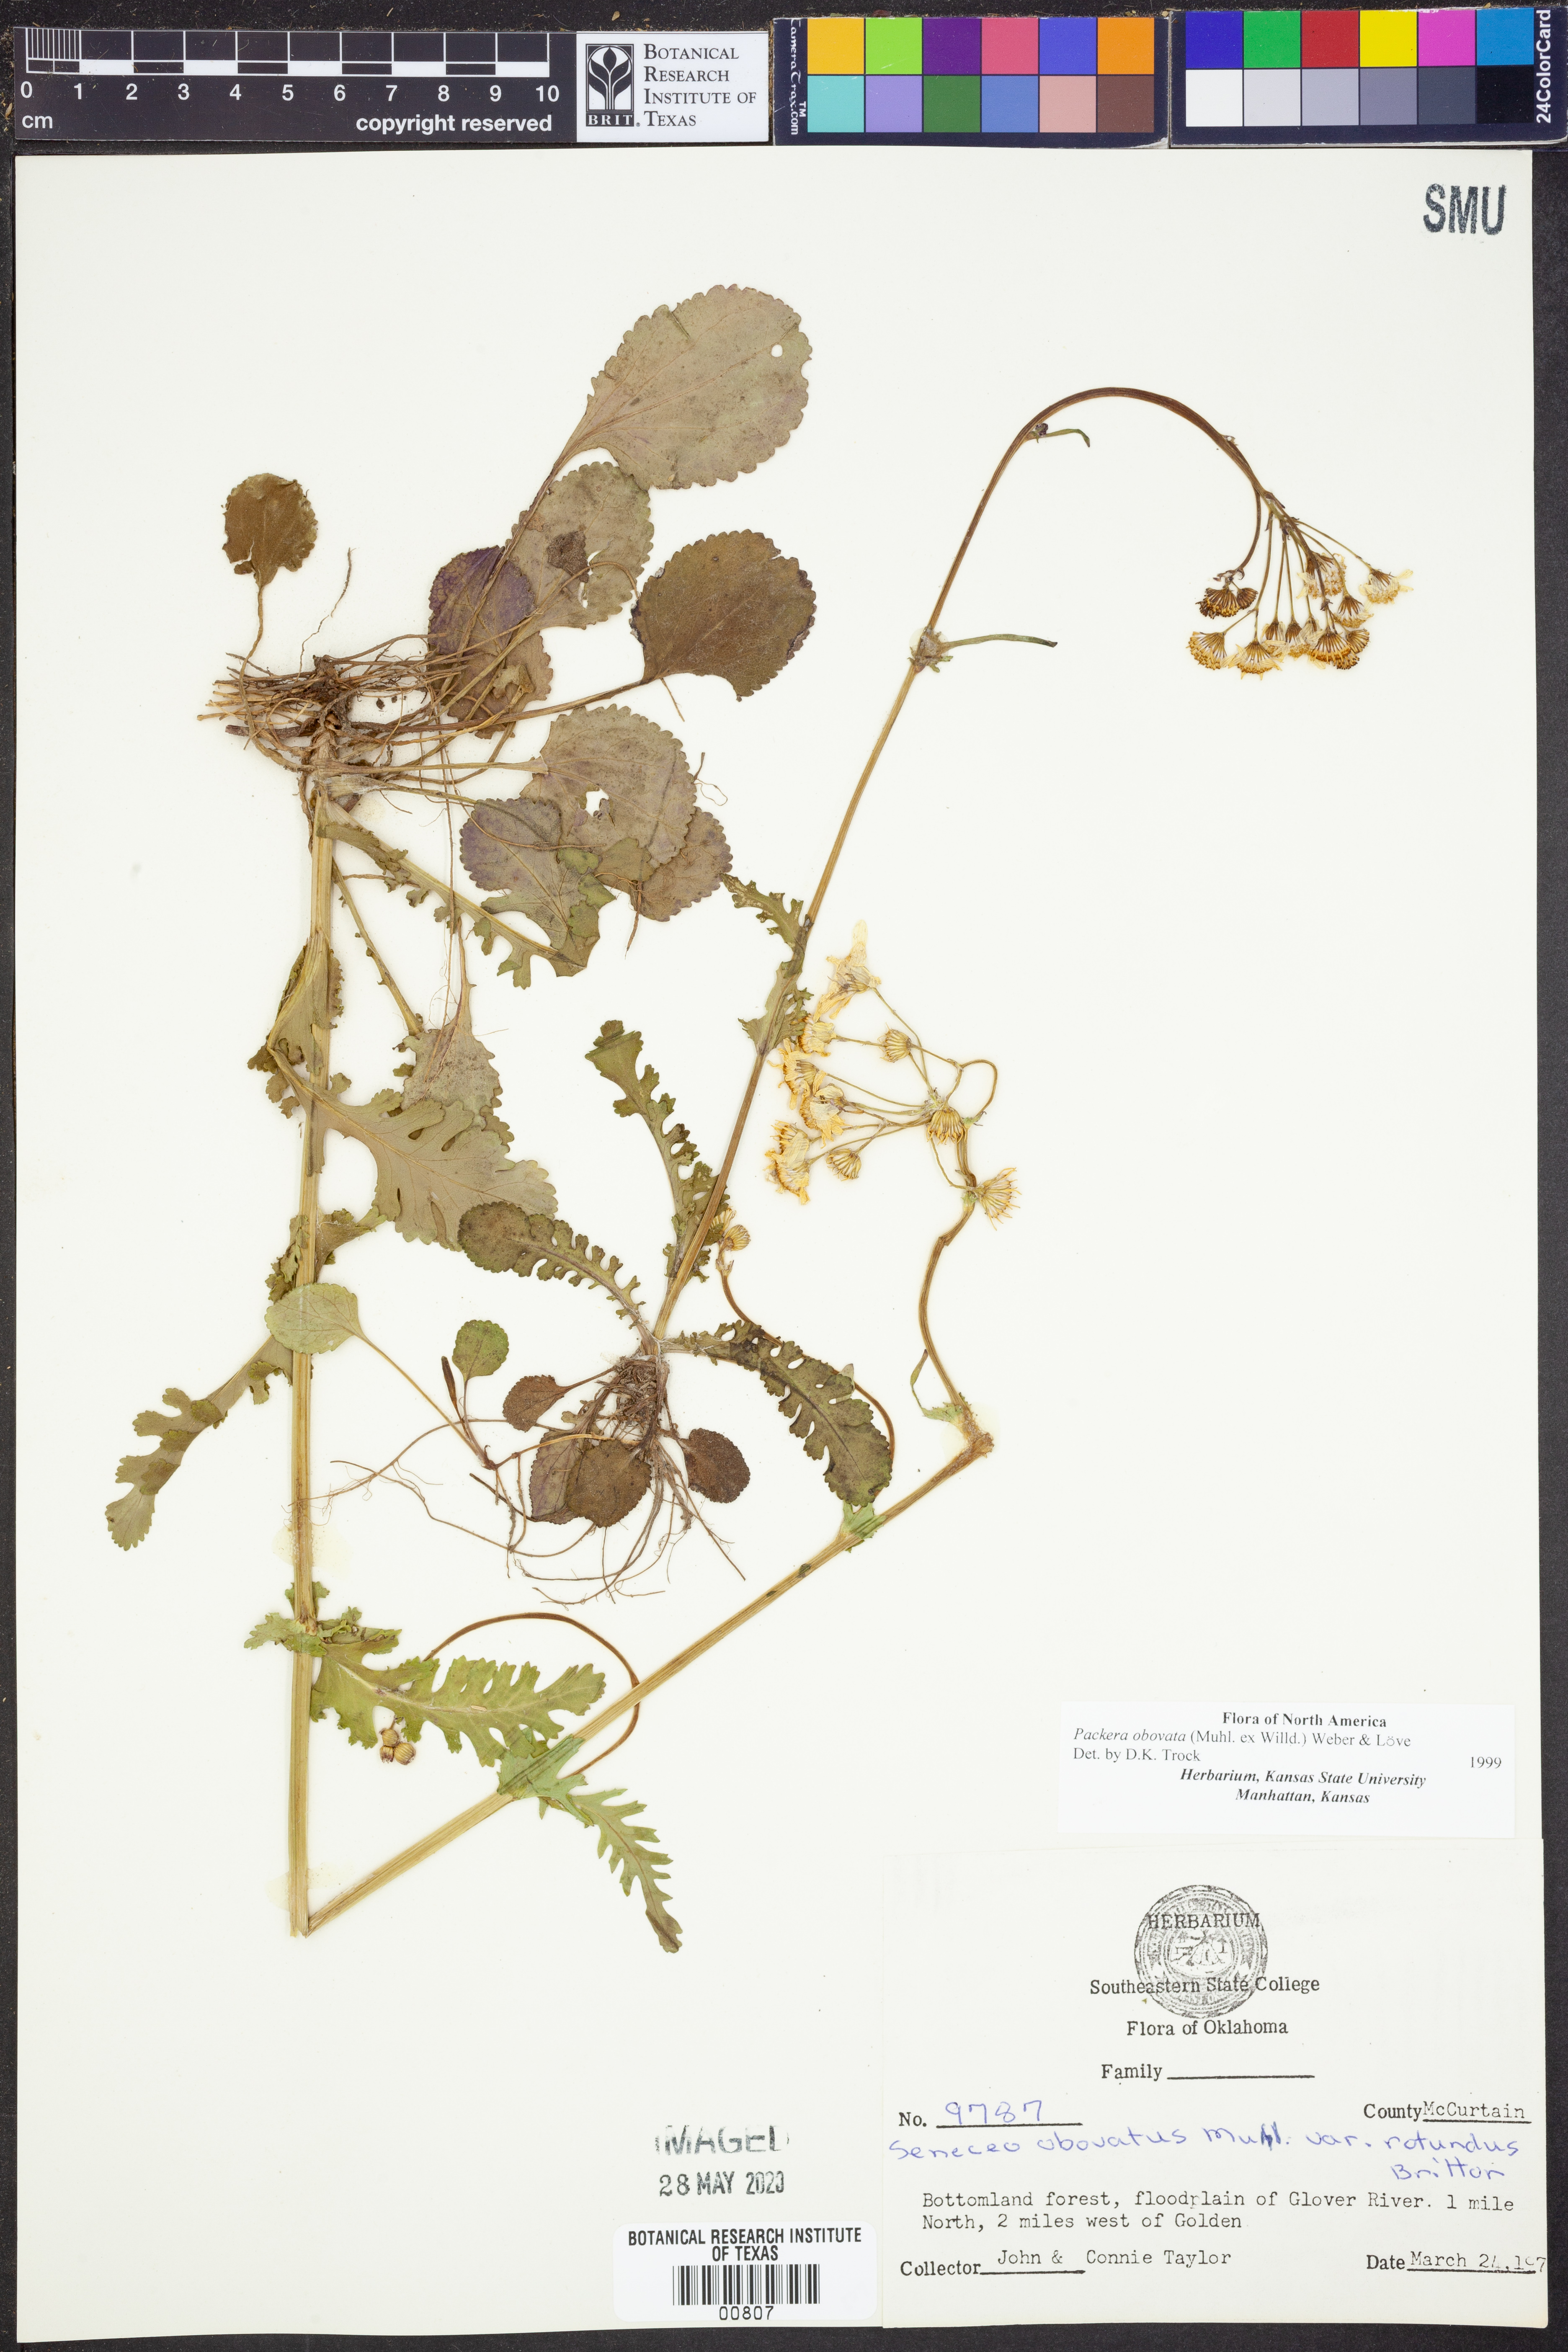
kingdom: Plantae
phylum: Tracheophyta
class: Magnoliopsida
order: Asterales
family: Asteraceae
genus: Packera
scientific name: Packera obovata
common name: Round-leaf ragwort
